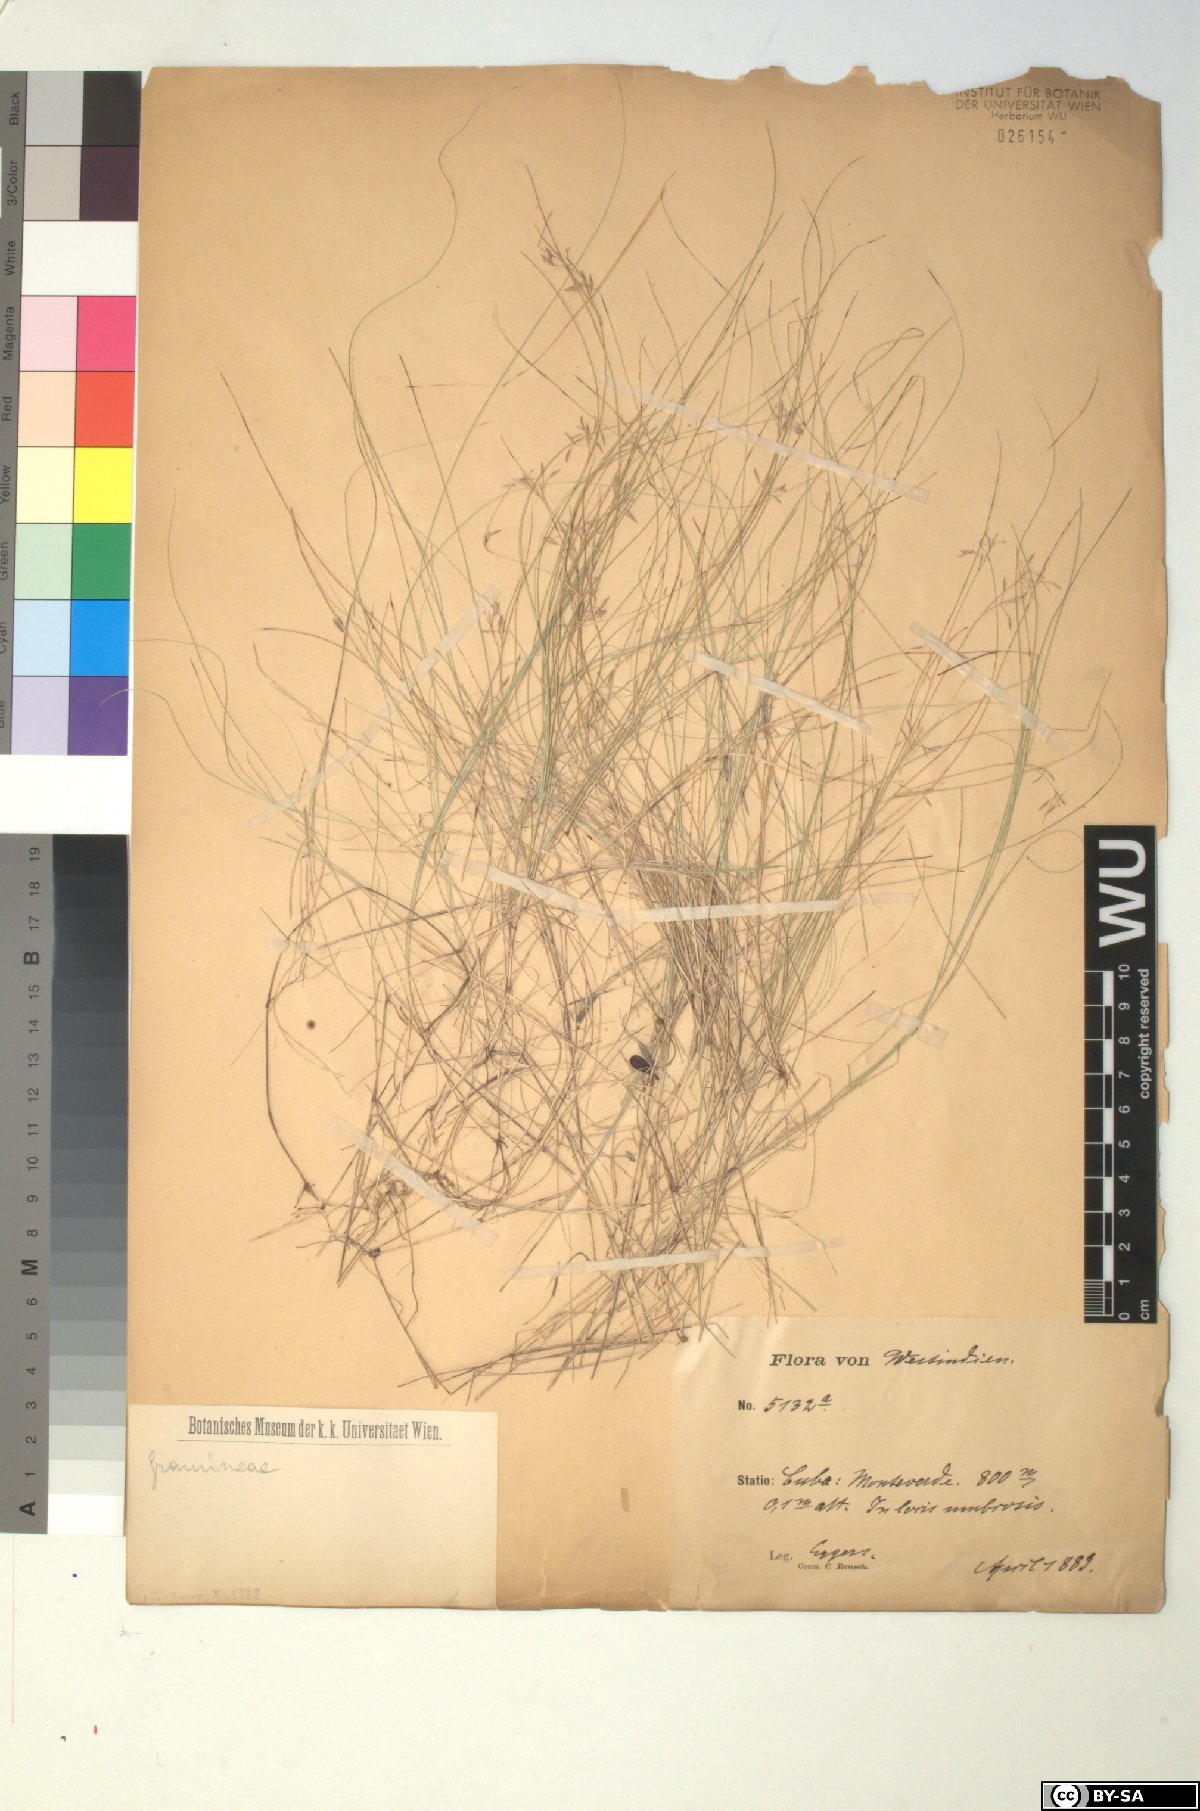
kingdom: Plantae
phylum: Tracheophyta
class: Liliopsida
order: Poales
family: Cyperaceae
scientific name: Cyperaceae
